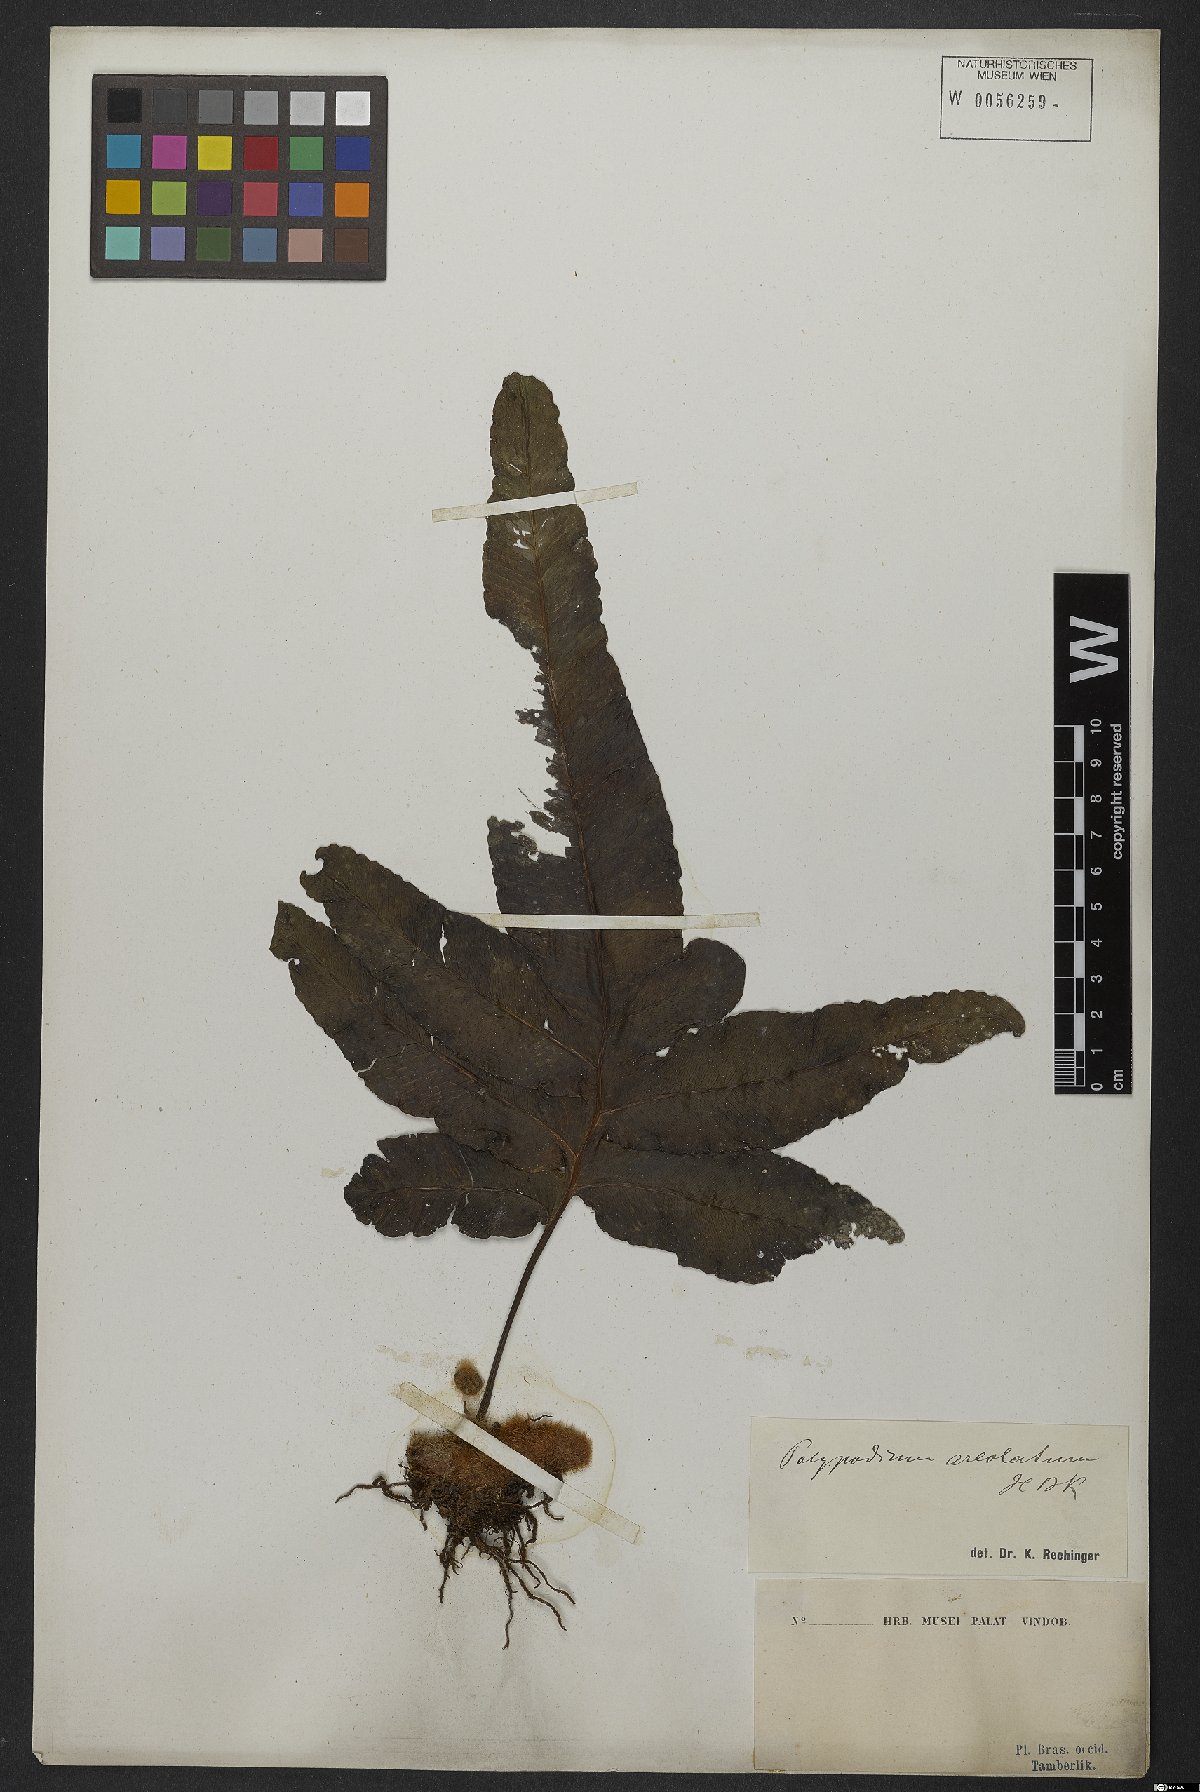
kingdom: Plantae
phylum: Tracheophyta
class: Polypodiopsida
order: Polypodiales
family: Polypodiaceae
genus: Phlebodium
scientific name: Phlebodium aureum
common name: Gold-foot fern
